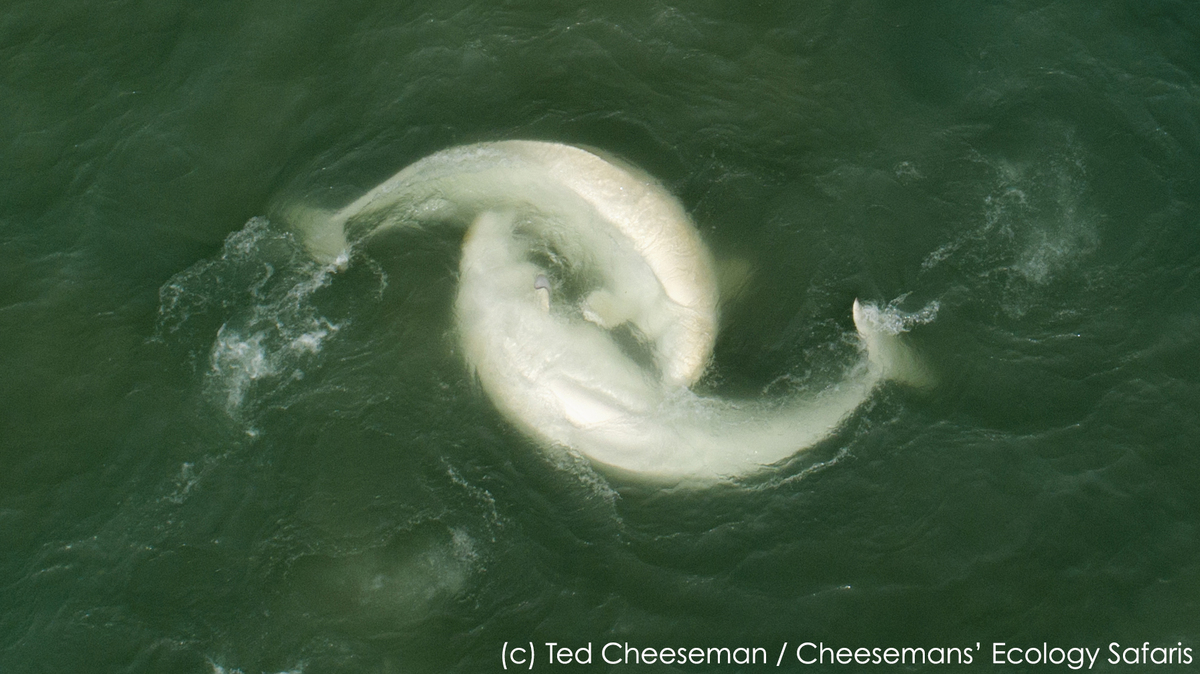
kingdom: Animalia
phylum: Chordata
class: Mammalia
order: Cetacea
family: Monodontidae
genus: Delphinapterus
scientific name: Delphinapterus leucas
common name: Beluga
